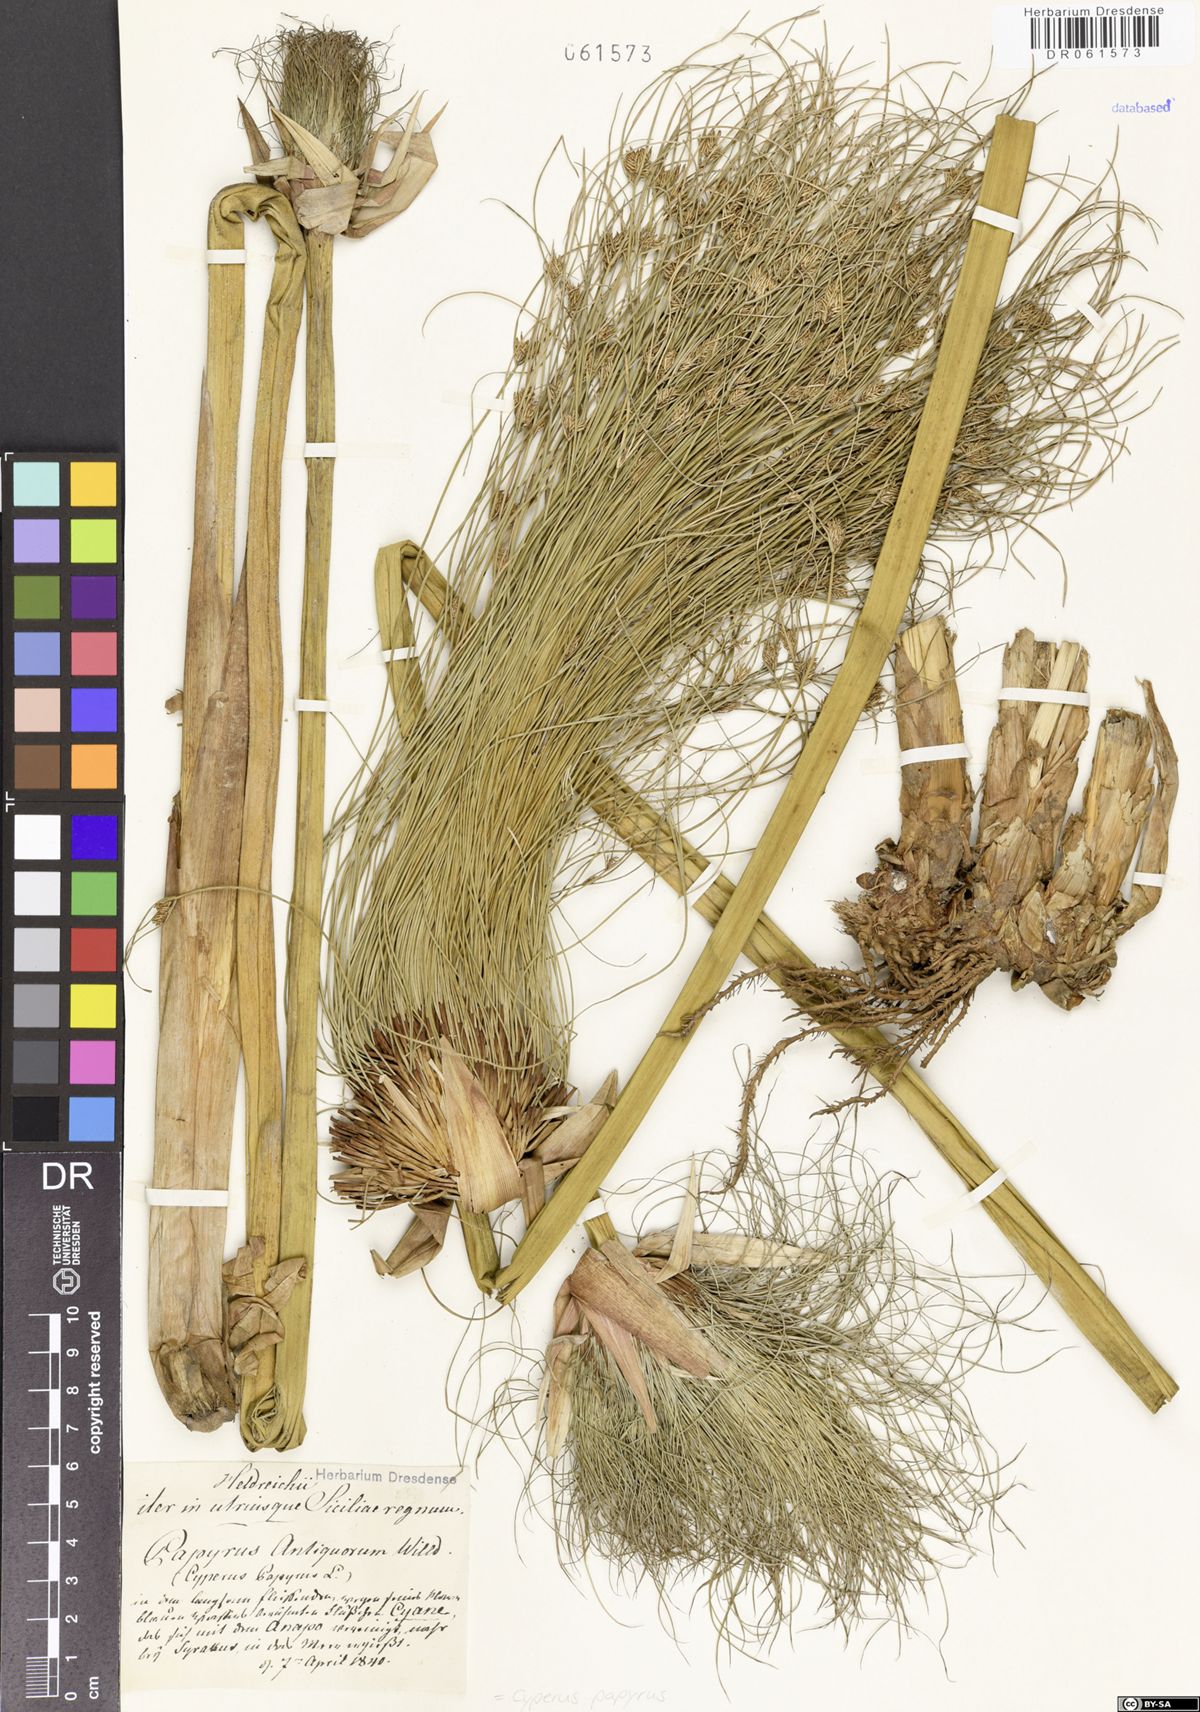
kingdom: Plantae
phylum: Tracheophyta
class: Liliopsida
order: Poales
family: Cyperaceae
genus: Cyperus
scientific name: Cyperus papyrus
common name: Papyrus
